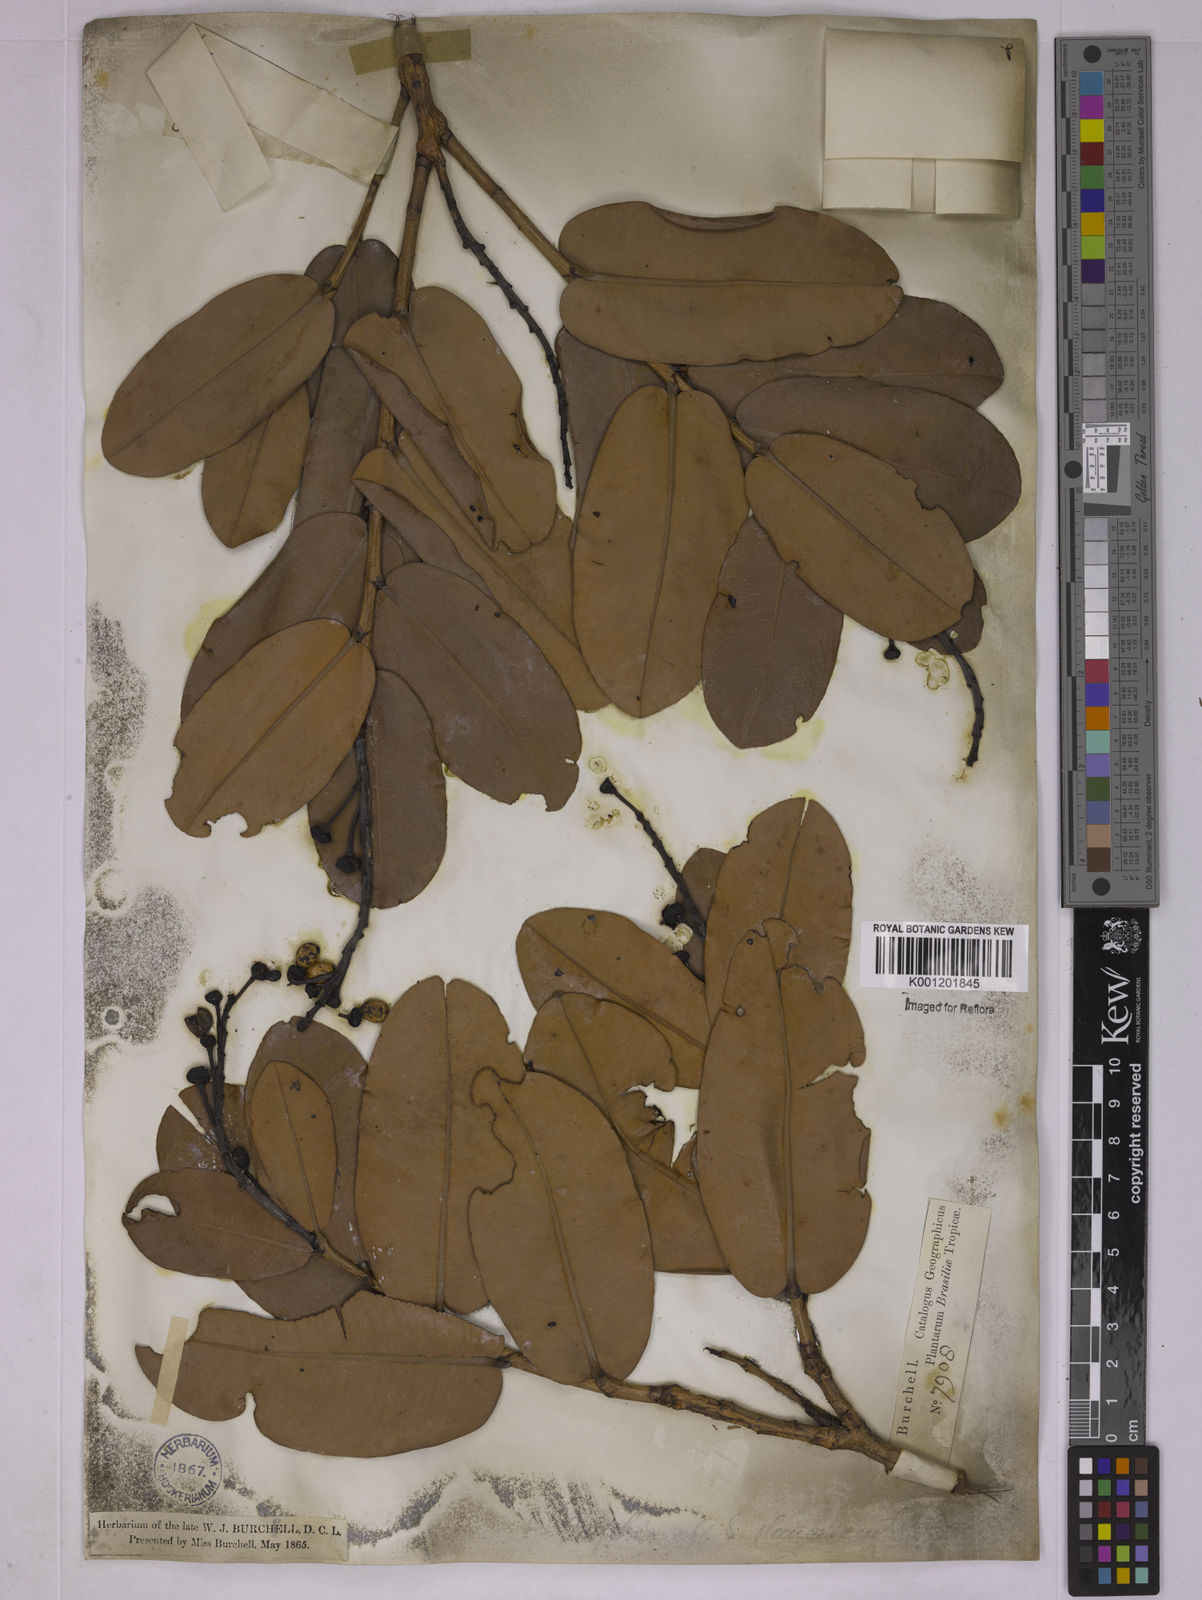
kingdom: Plantae
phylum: Tracheophyta
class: Magnoliopsida
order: Malpighiales
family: Ochnaceae
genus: Ouratea
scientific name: Ouratea glaucescens
